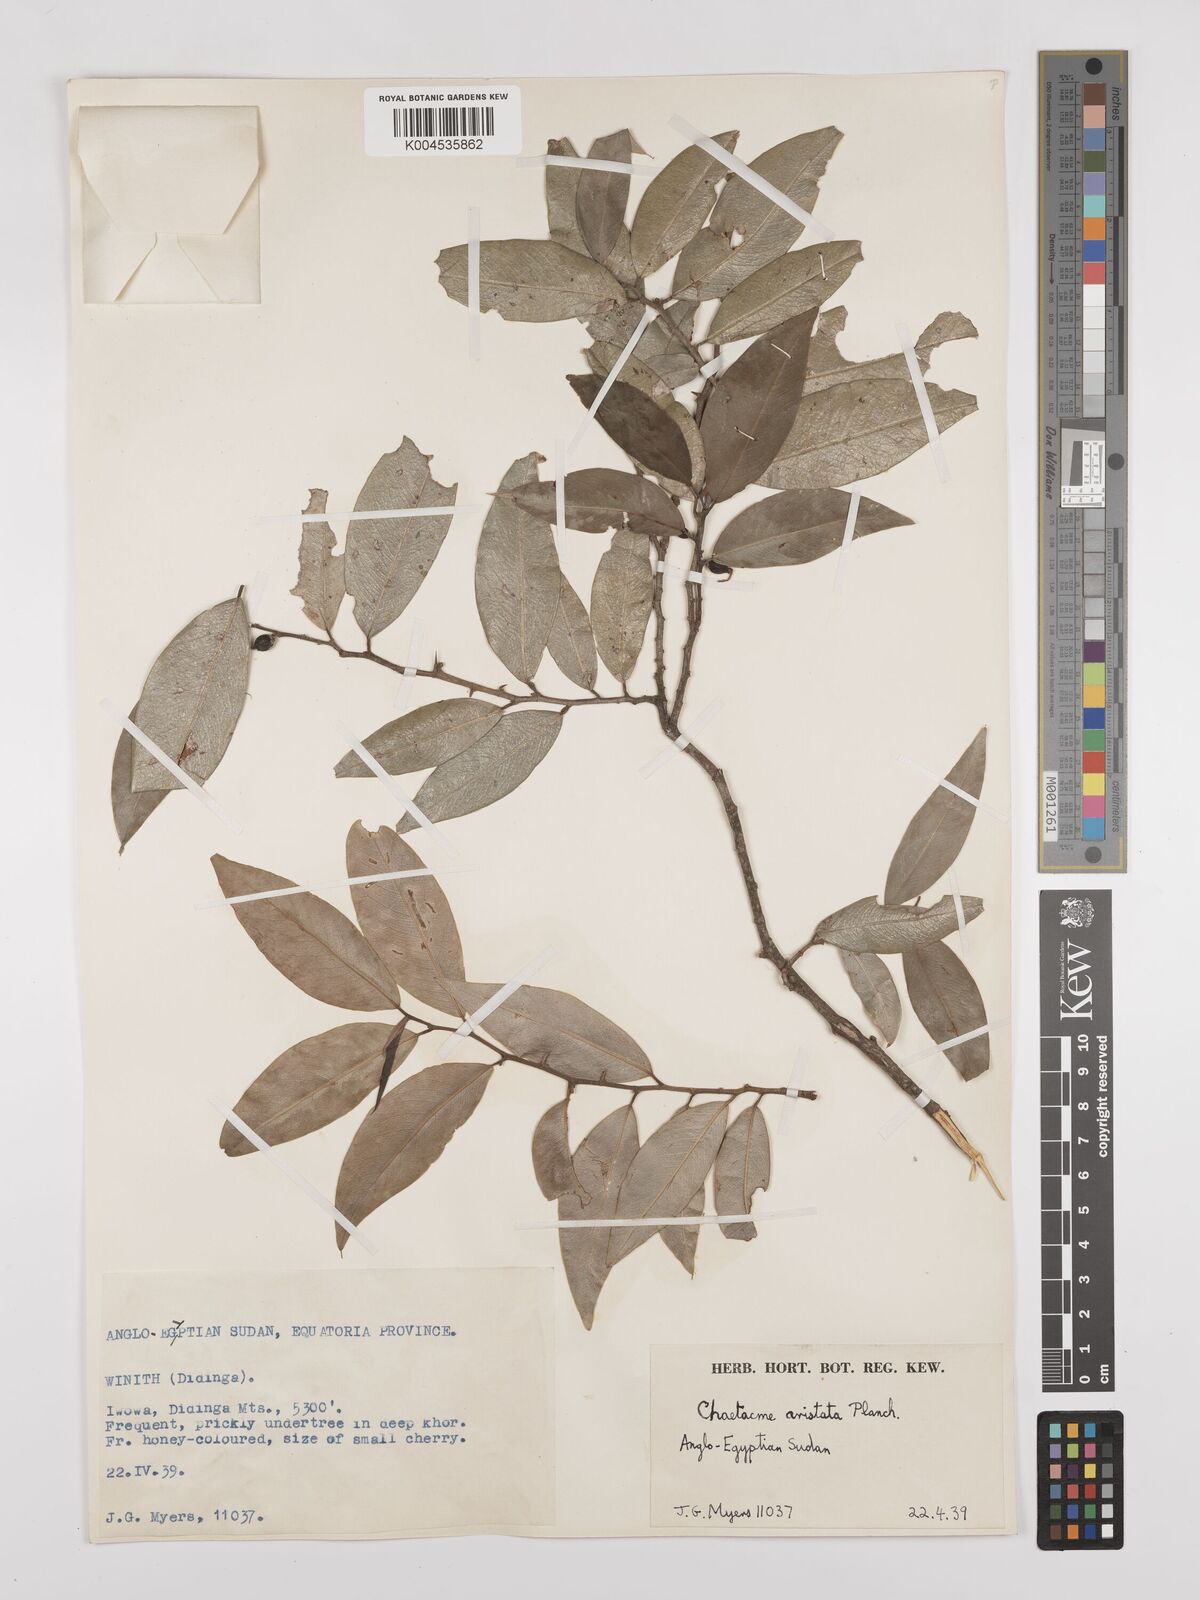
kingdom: Plantae
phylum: Tracheophyta
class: Magnoliopsida
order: Rosales
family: Cannabaceae
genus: Chaetachme
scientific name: Chaetachme aristata
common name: Thorny elm
